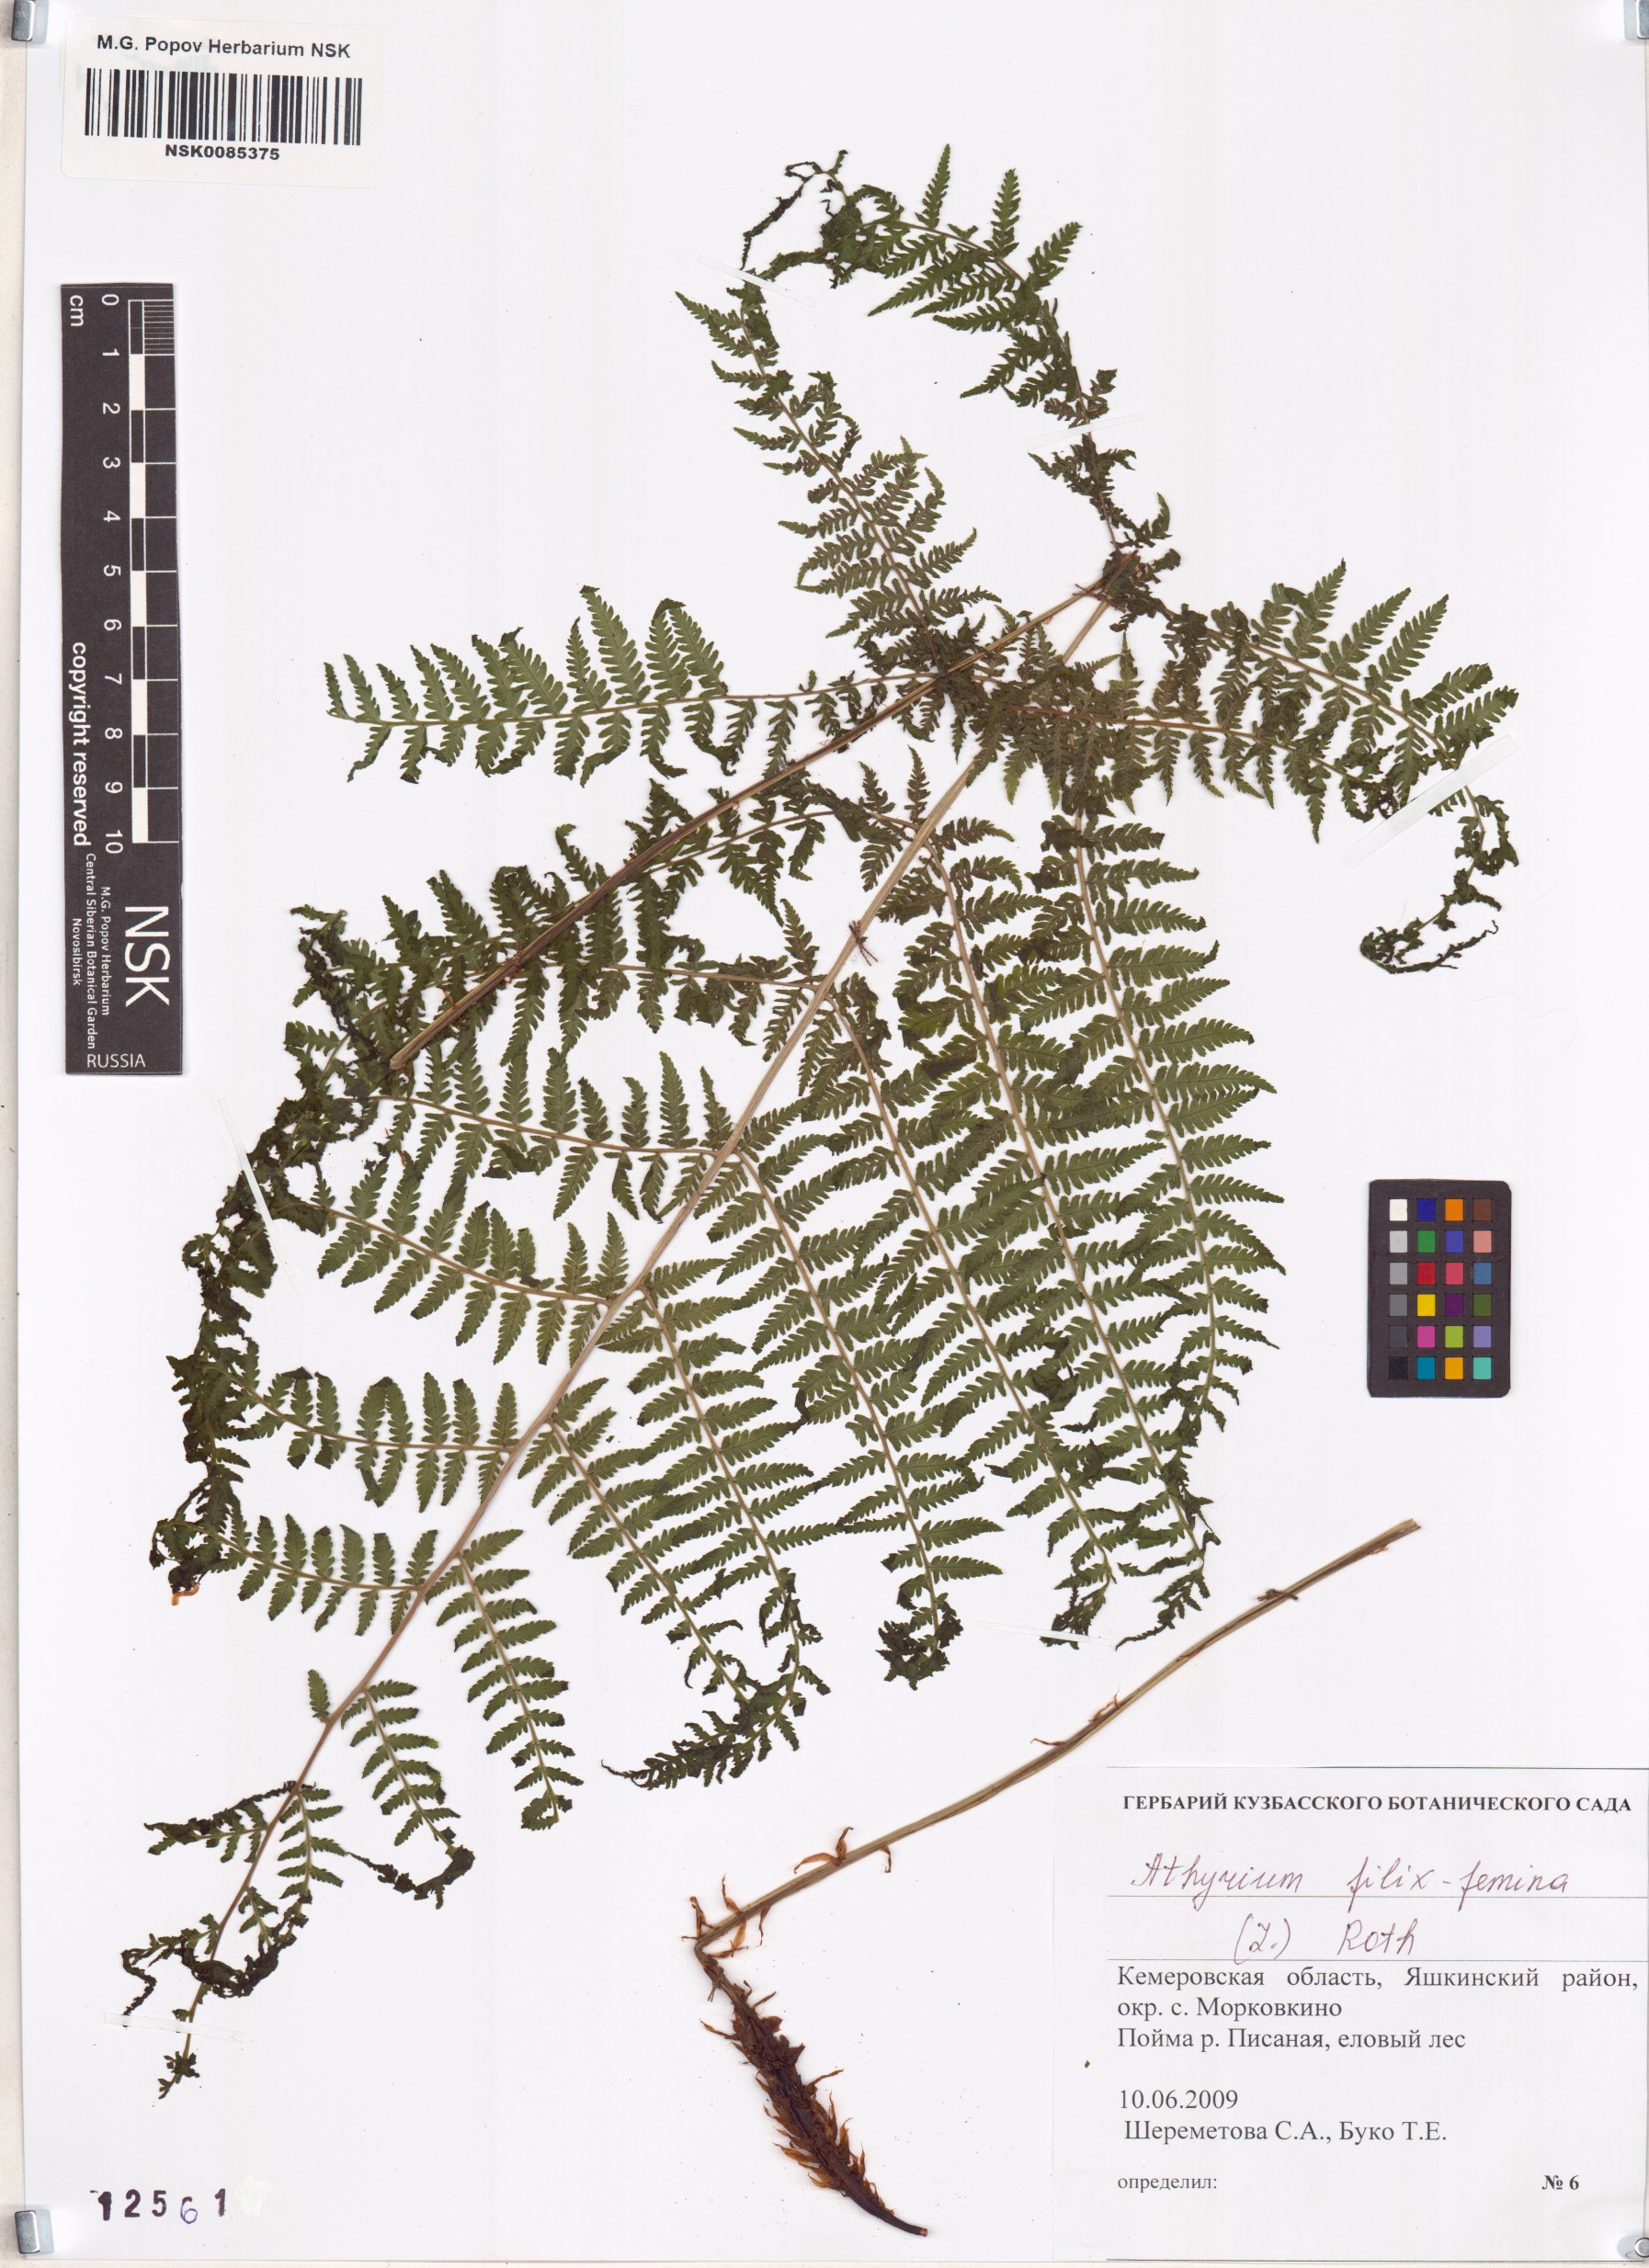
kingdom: Plantae
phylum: Tracheophyta
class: Polypodiopsida
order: Polypodiales
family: Athyriaceae
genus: Athyrium
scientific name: Athyrium filix-femina
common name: Lady fern
